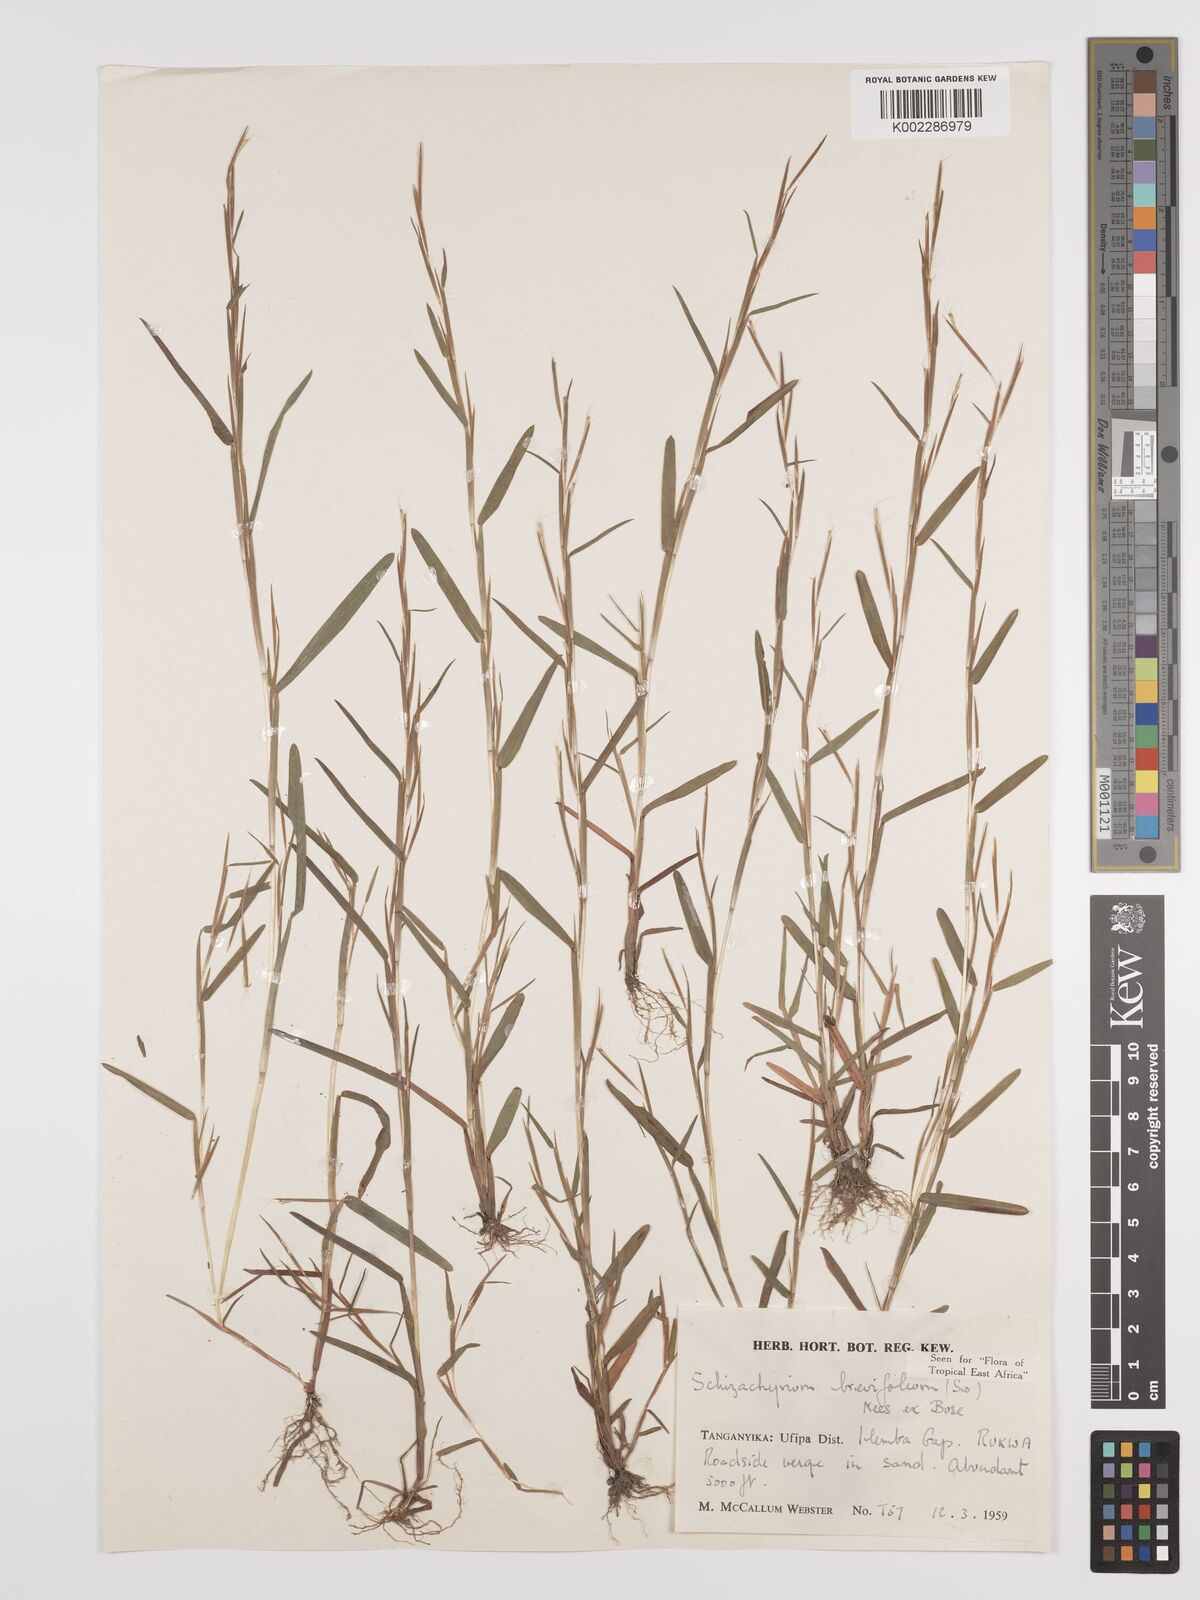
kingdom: Plantae
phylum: Tracheophyta
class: Liliopsida
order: Poales
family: Poaceae
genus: Schizachyrium
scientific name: Schizachyrium brevifolium
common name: Serillo dulce
